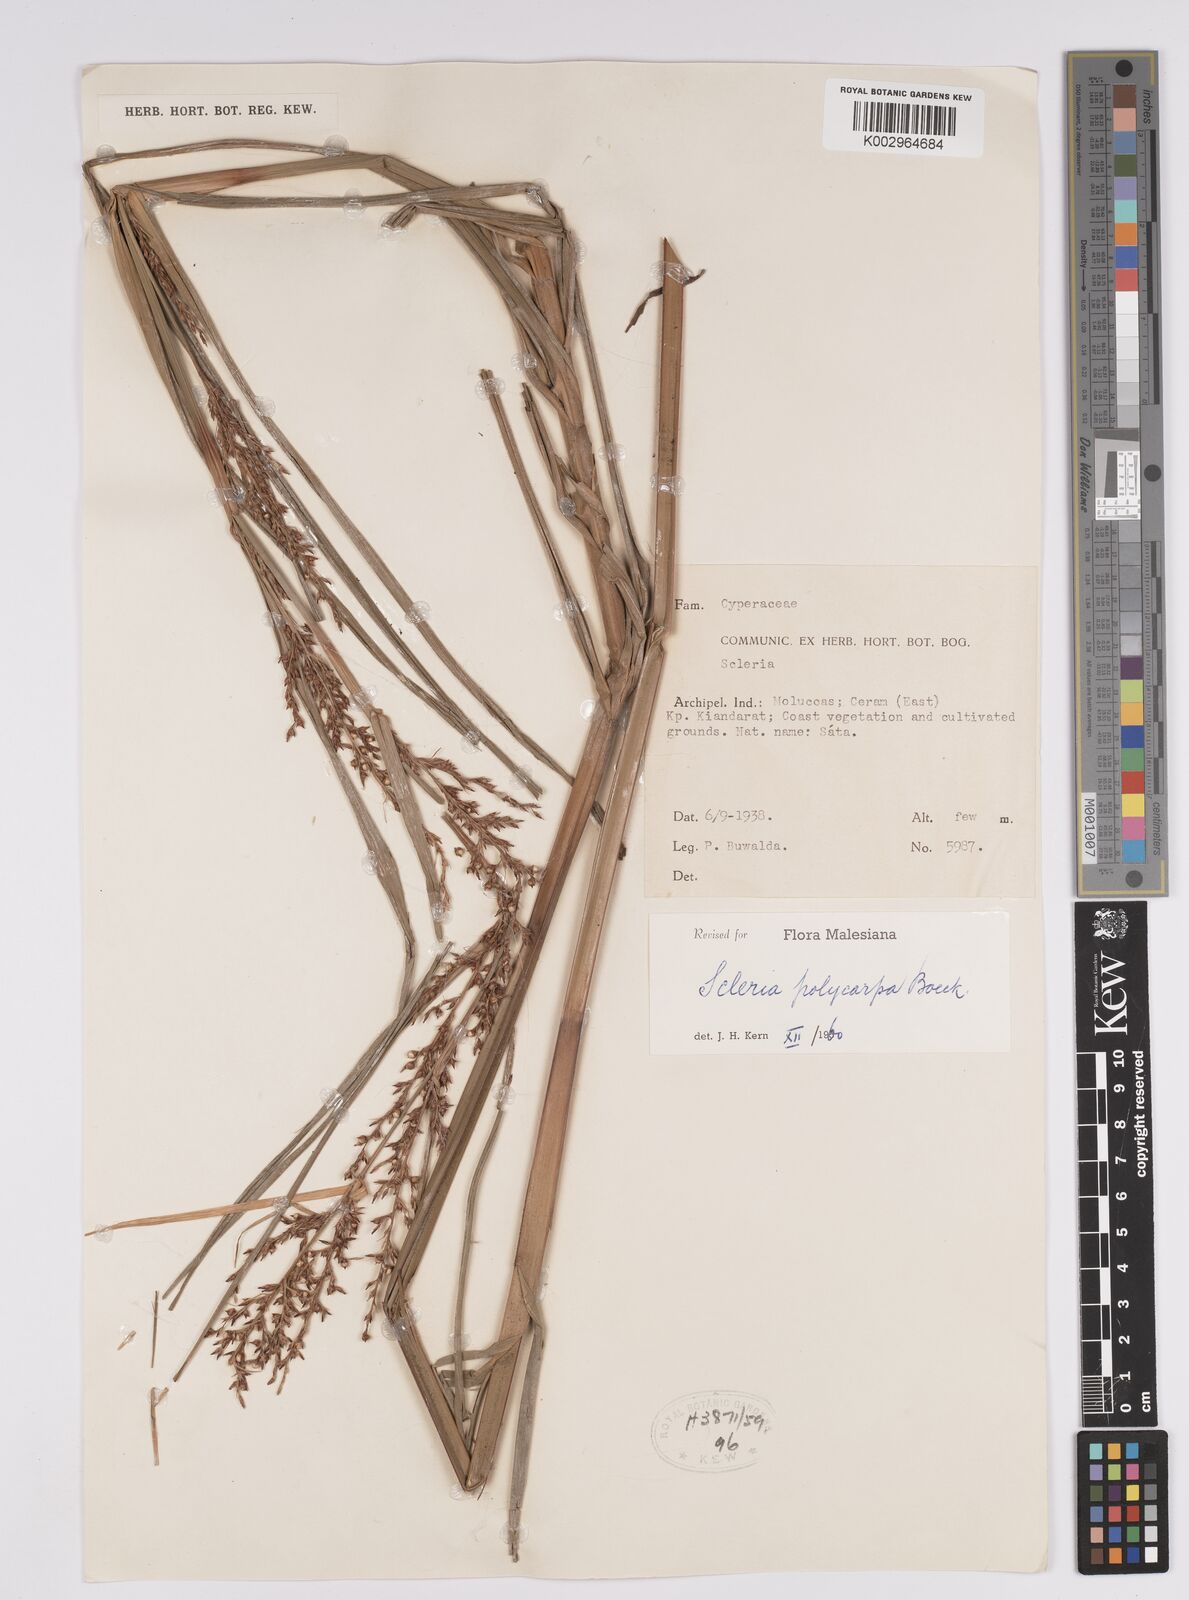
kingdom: Plantae
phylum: Tracheophyta
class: Liliopsida
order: Poales
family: Cyperaceae
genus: Scleria
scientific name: Scleria polycarpa
